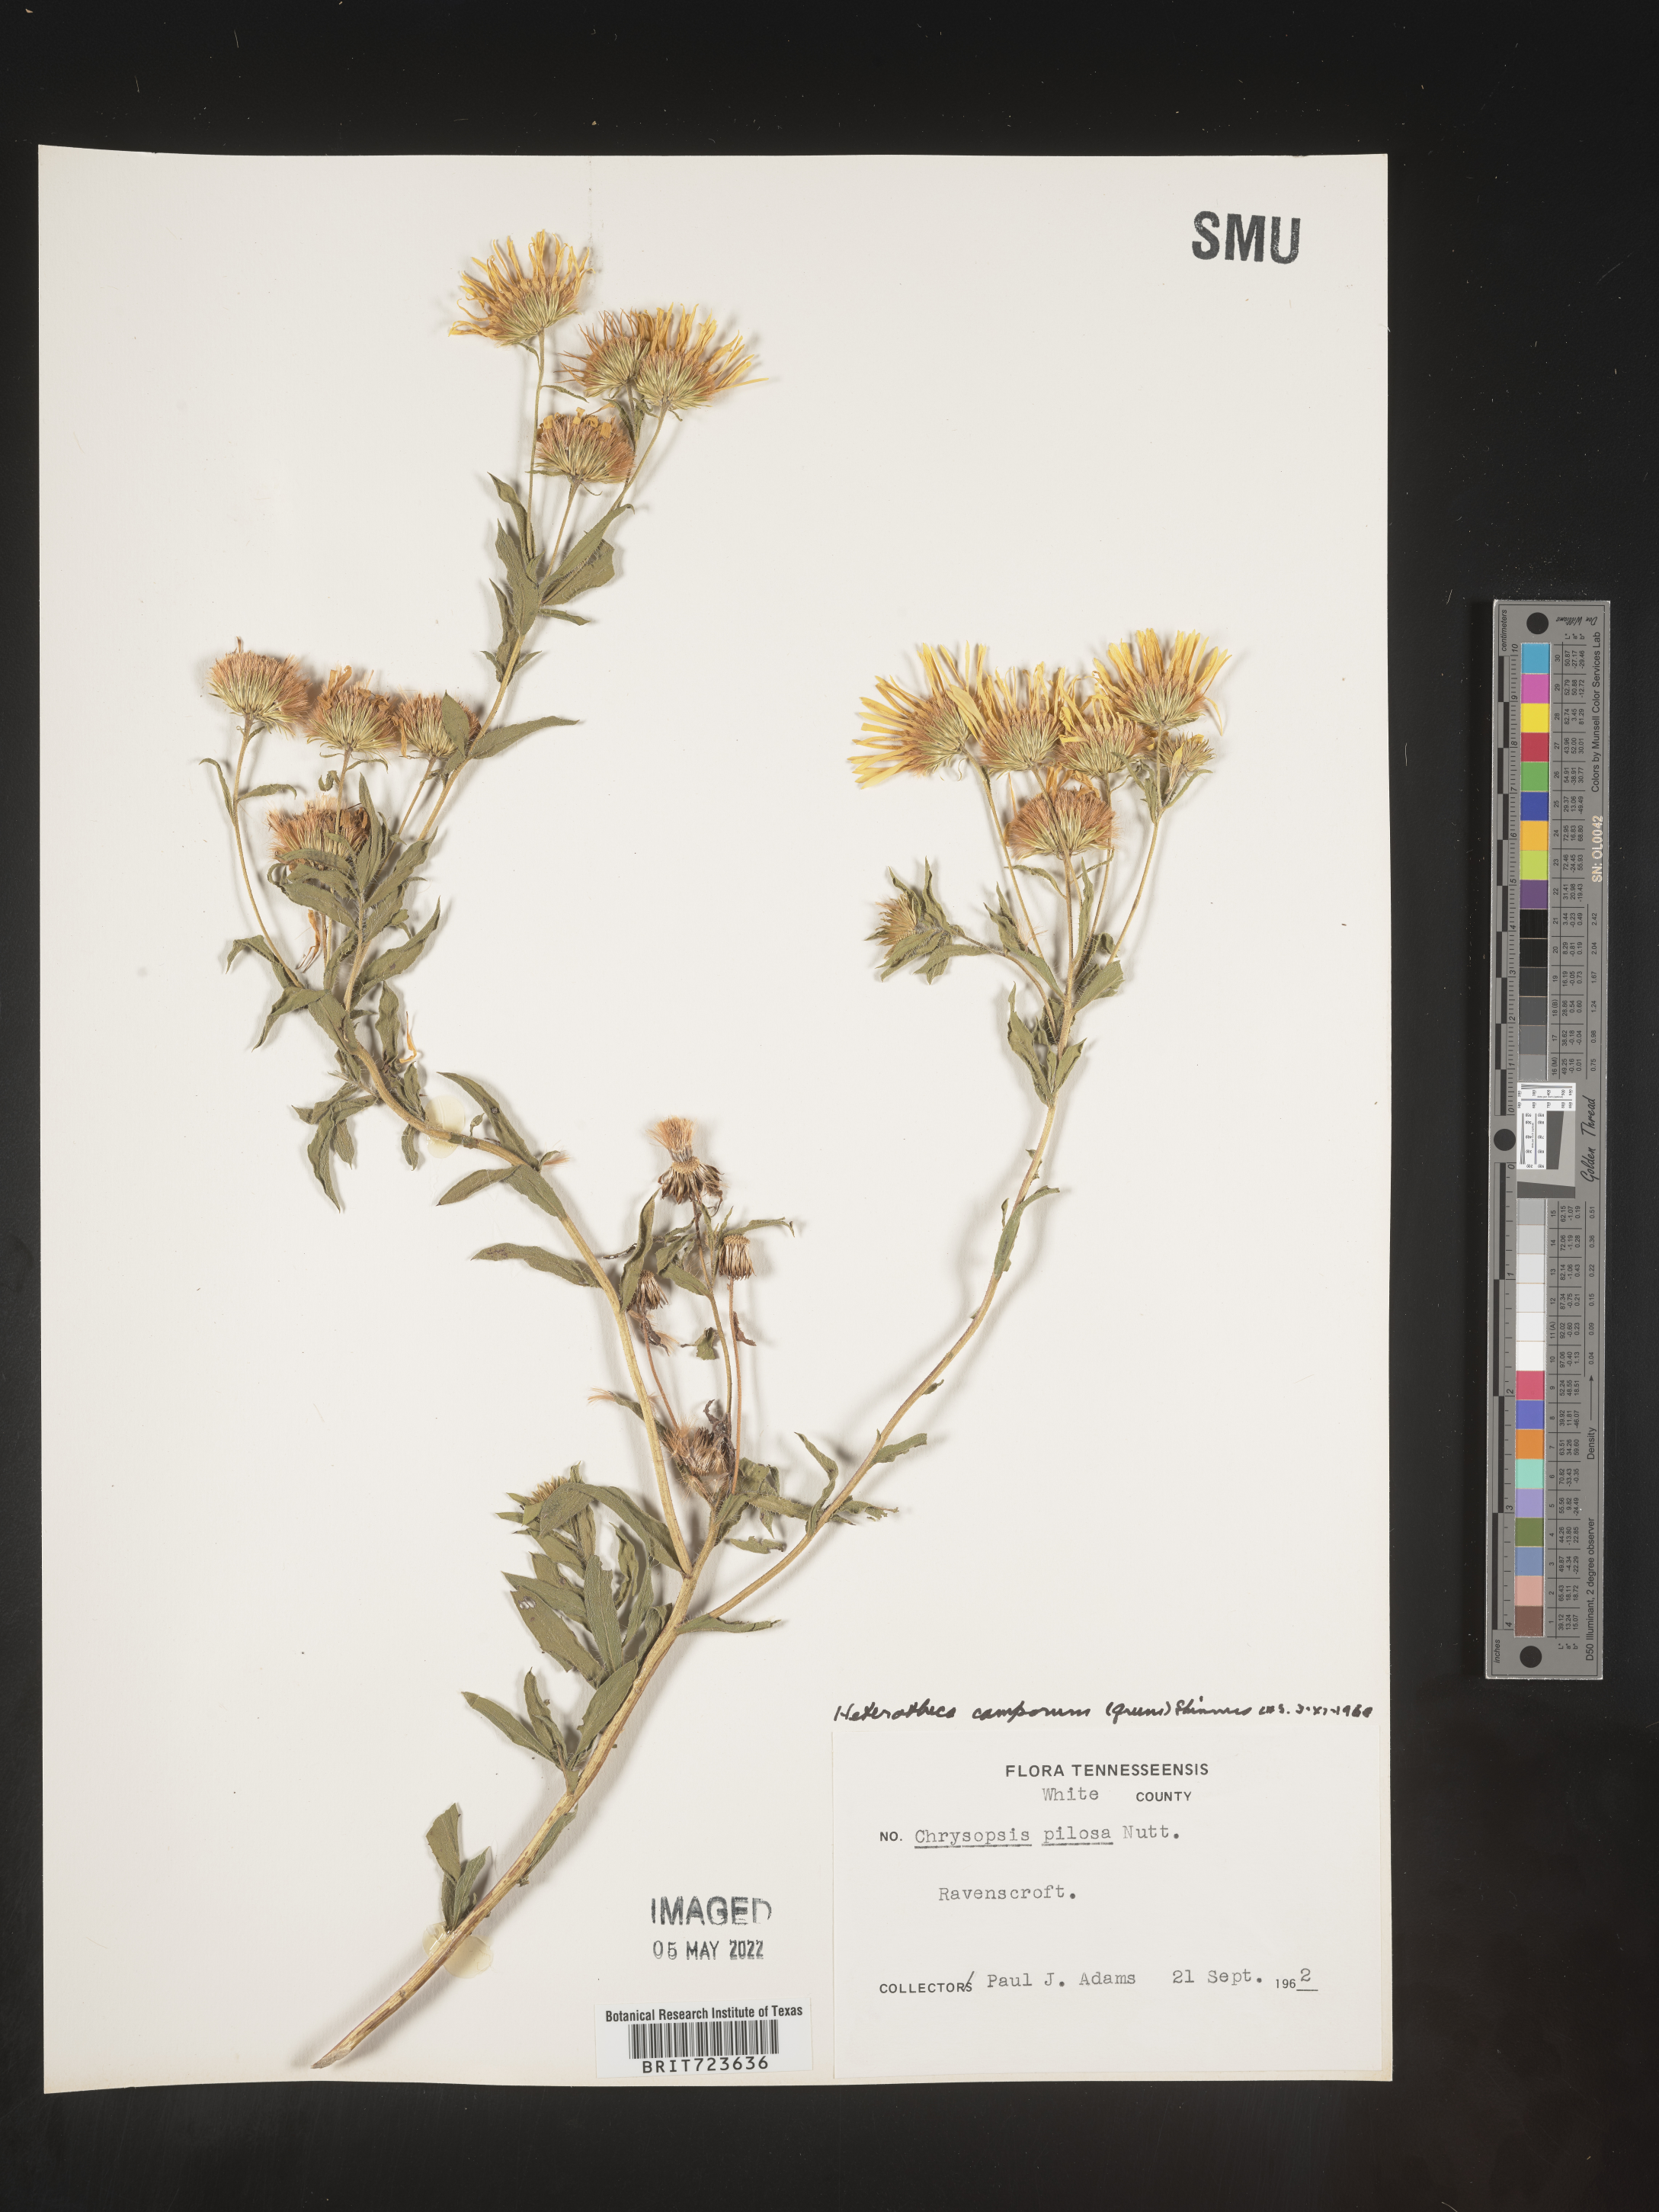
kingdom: Plantae
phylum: Tracheophyta
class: Magnoliopsida
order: Asterales
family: Asteraceae
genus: Heterotheca
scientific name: Heterotheca camporum
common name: Prairie golden-aster
